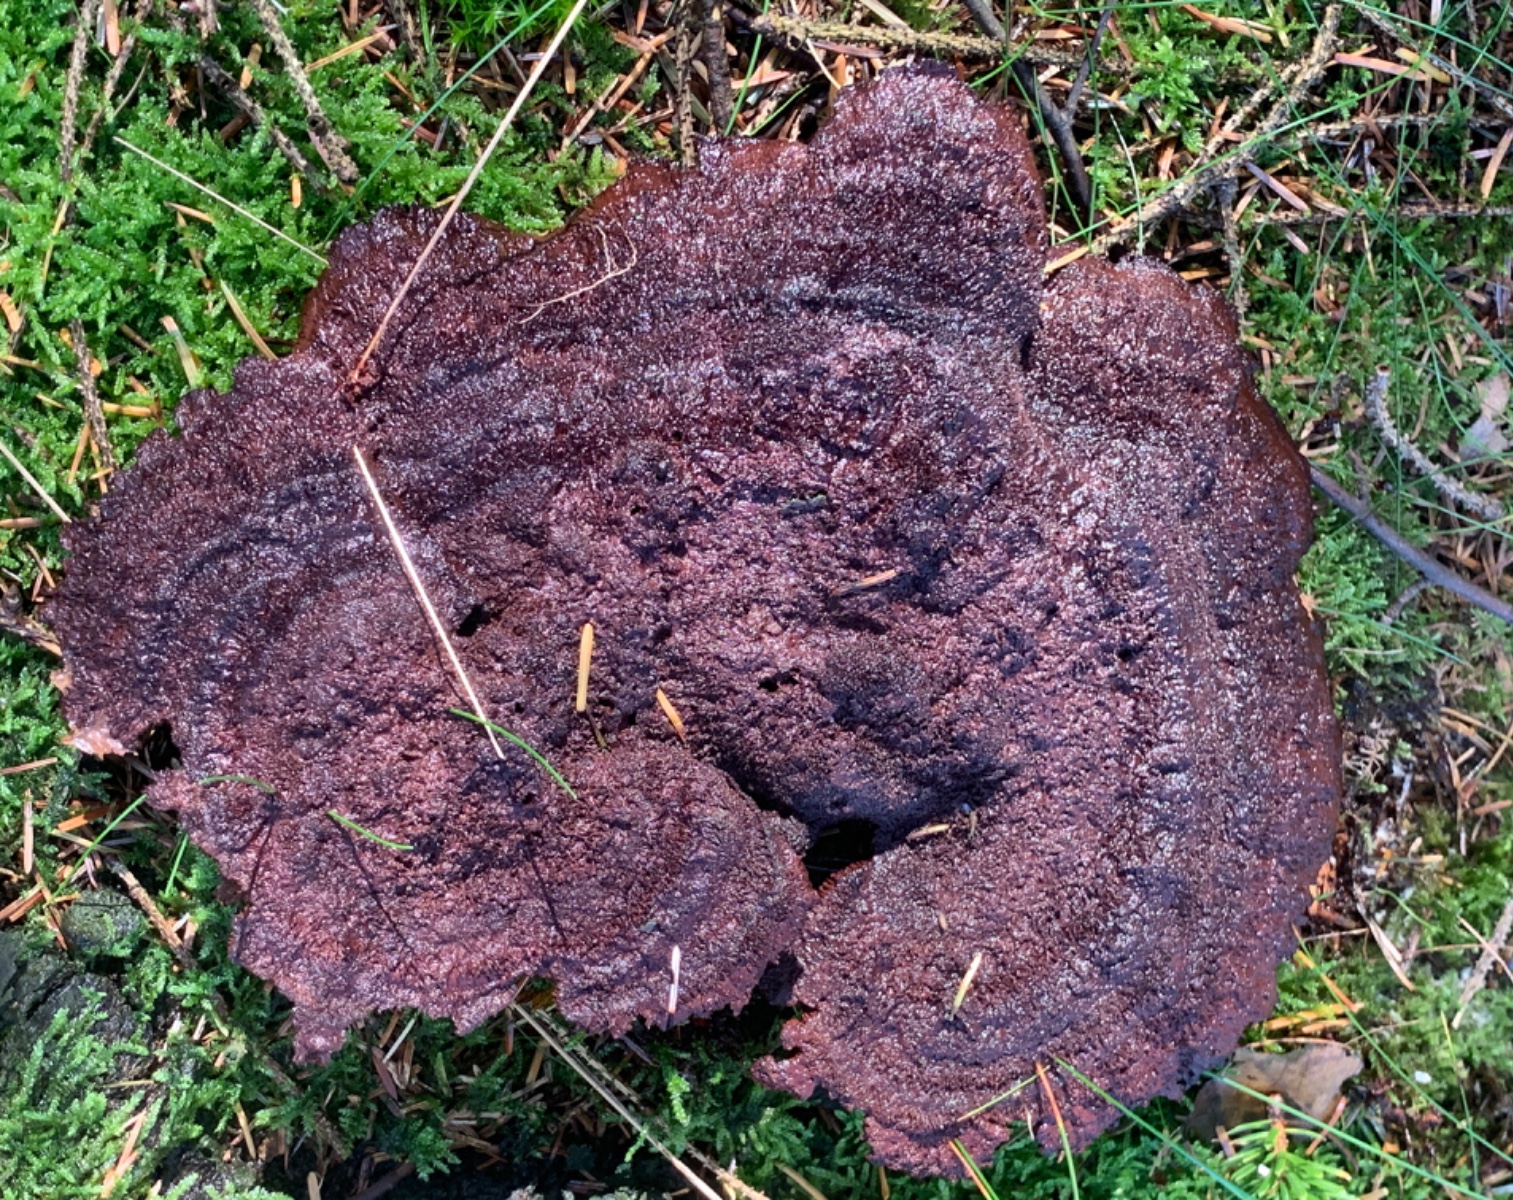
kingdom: Fungi
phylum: Basidiomycota
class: Agaricomycetes
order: Polyporales
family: Laetiporaceae
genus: Phaeolus
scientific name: Phaeolus schweinitzii
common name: brunporesvamp
